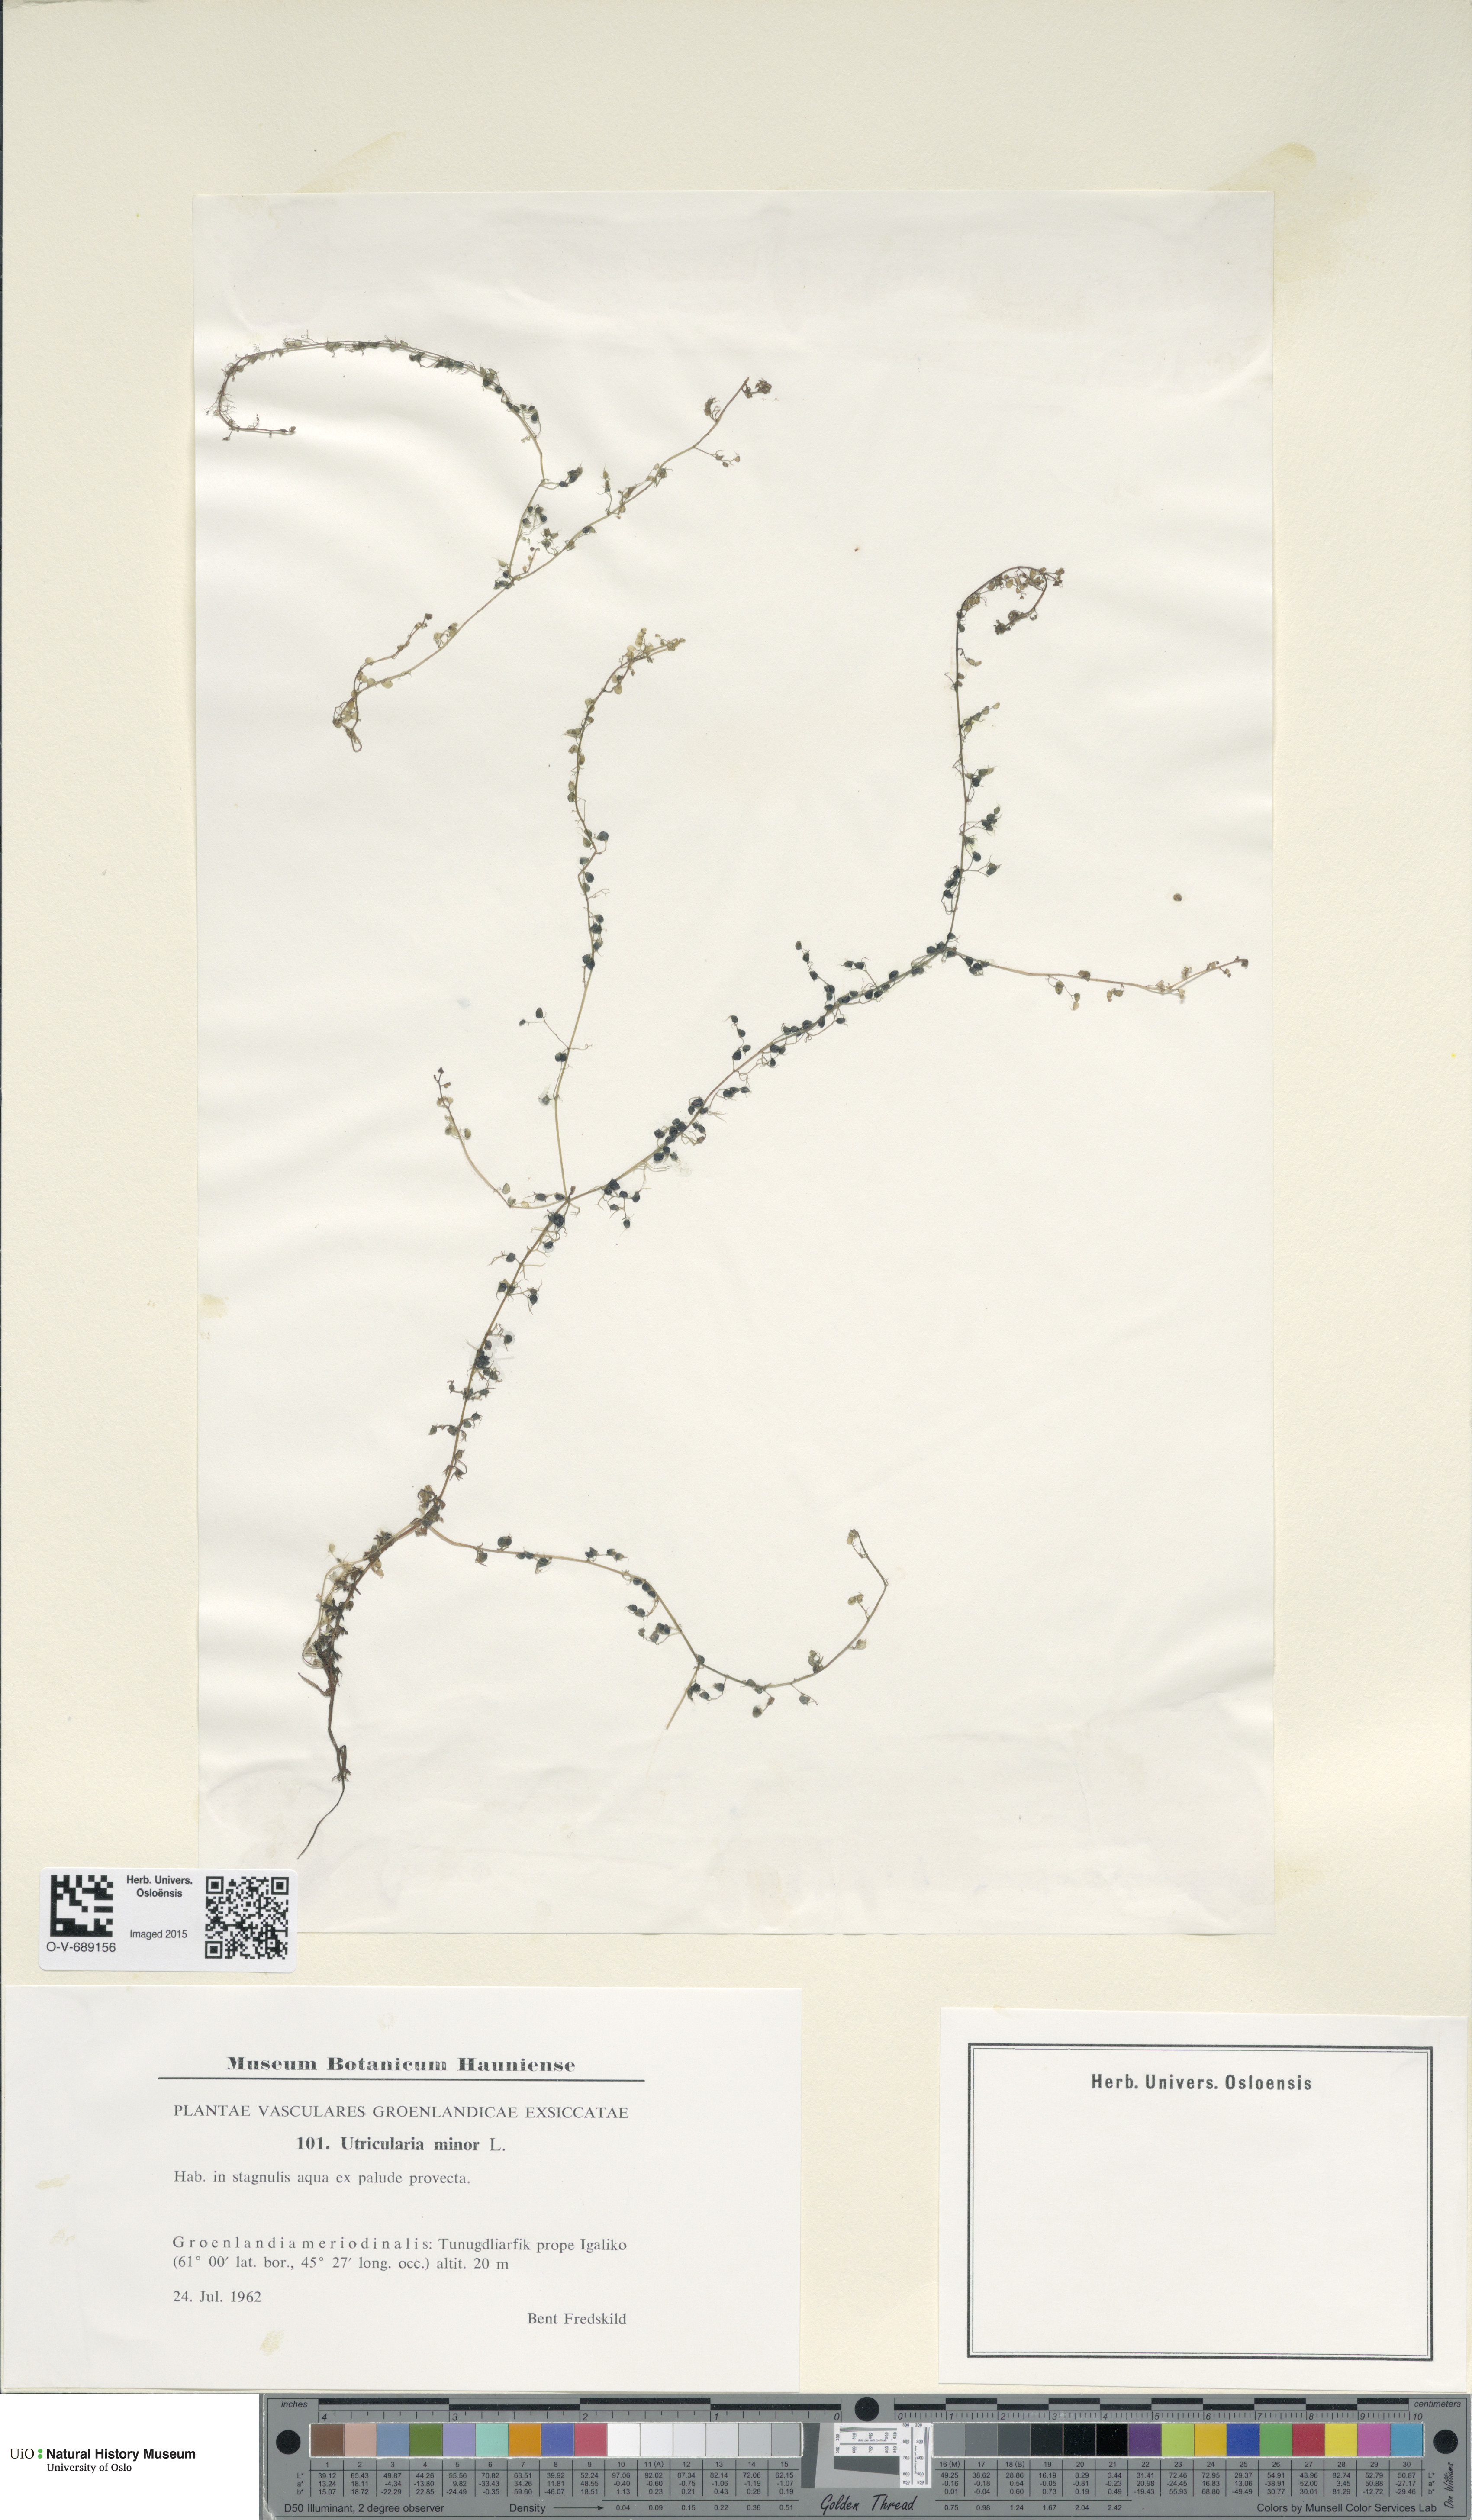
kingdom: Plantae
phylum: Tracheophyta
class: Magnoliopsida
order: Lamiales
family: Lentibulariaceae
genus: Utricularia
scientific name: Utricularia minor
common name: Lesser bladderwort
